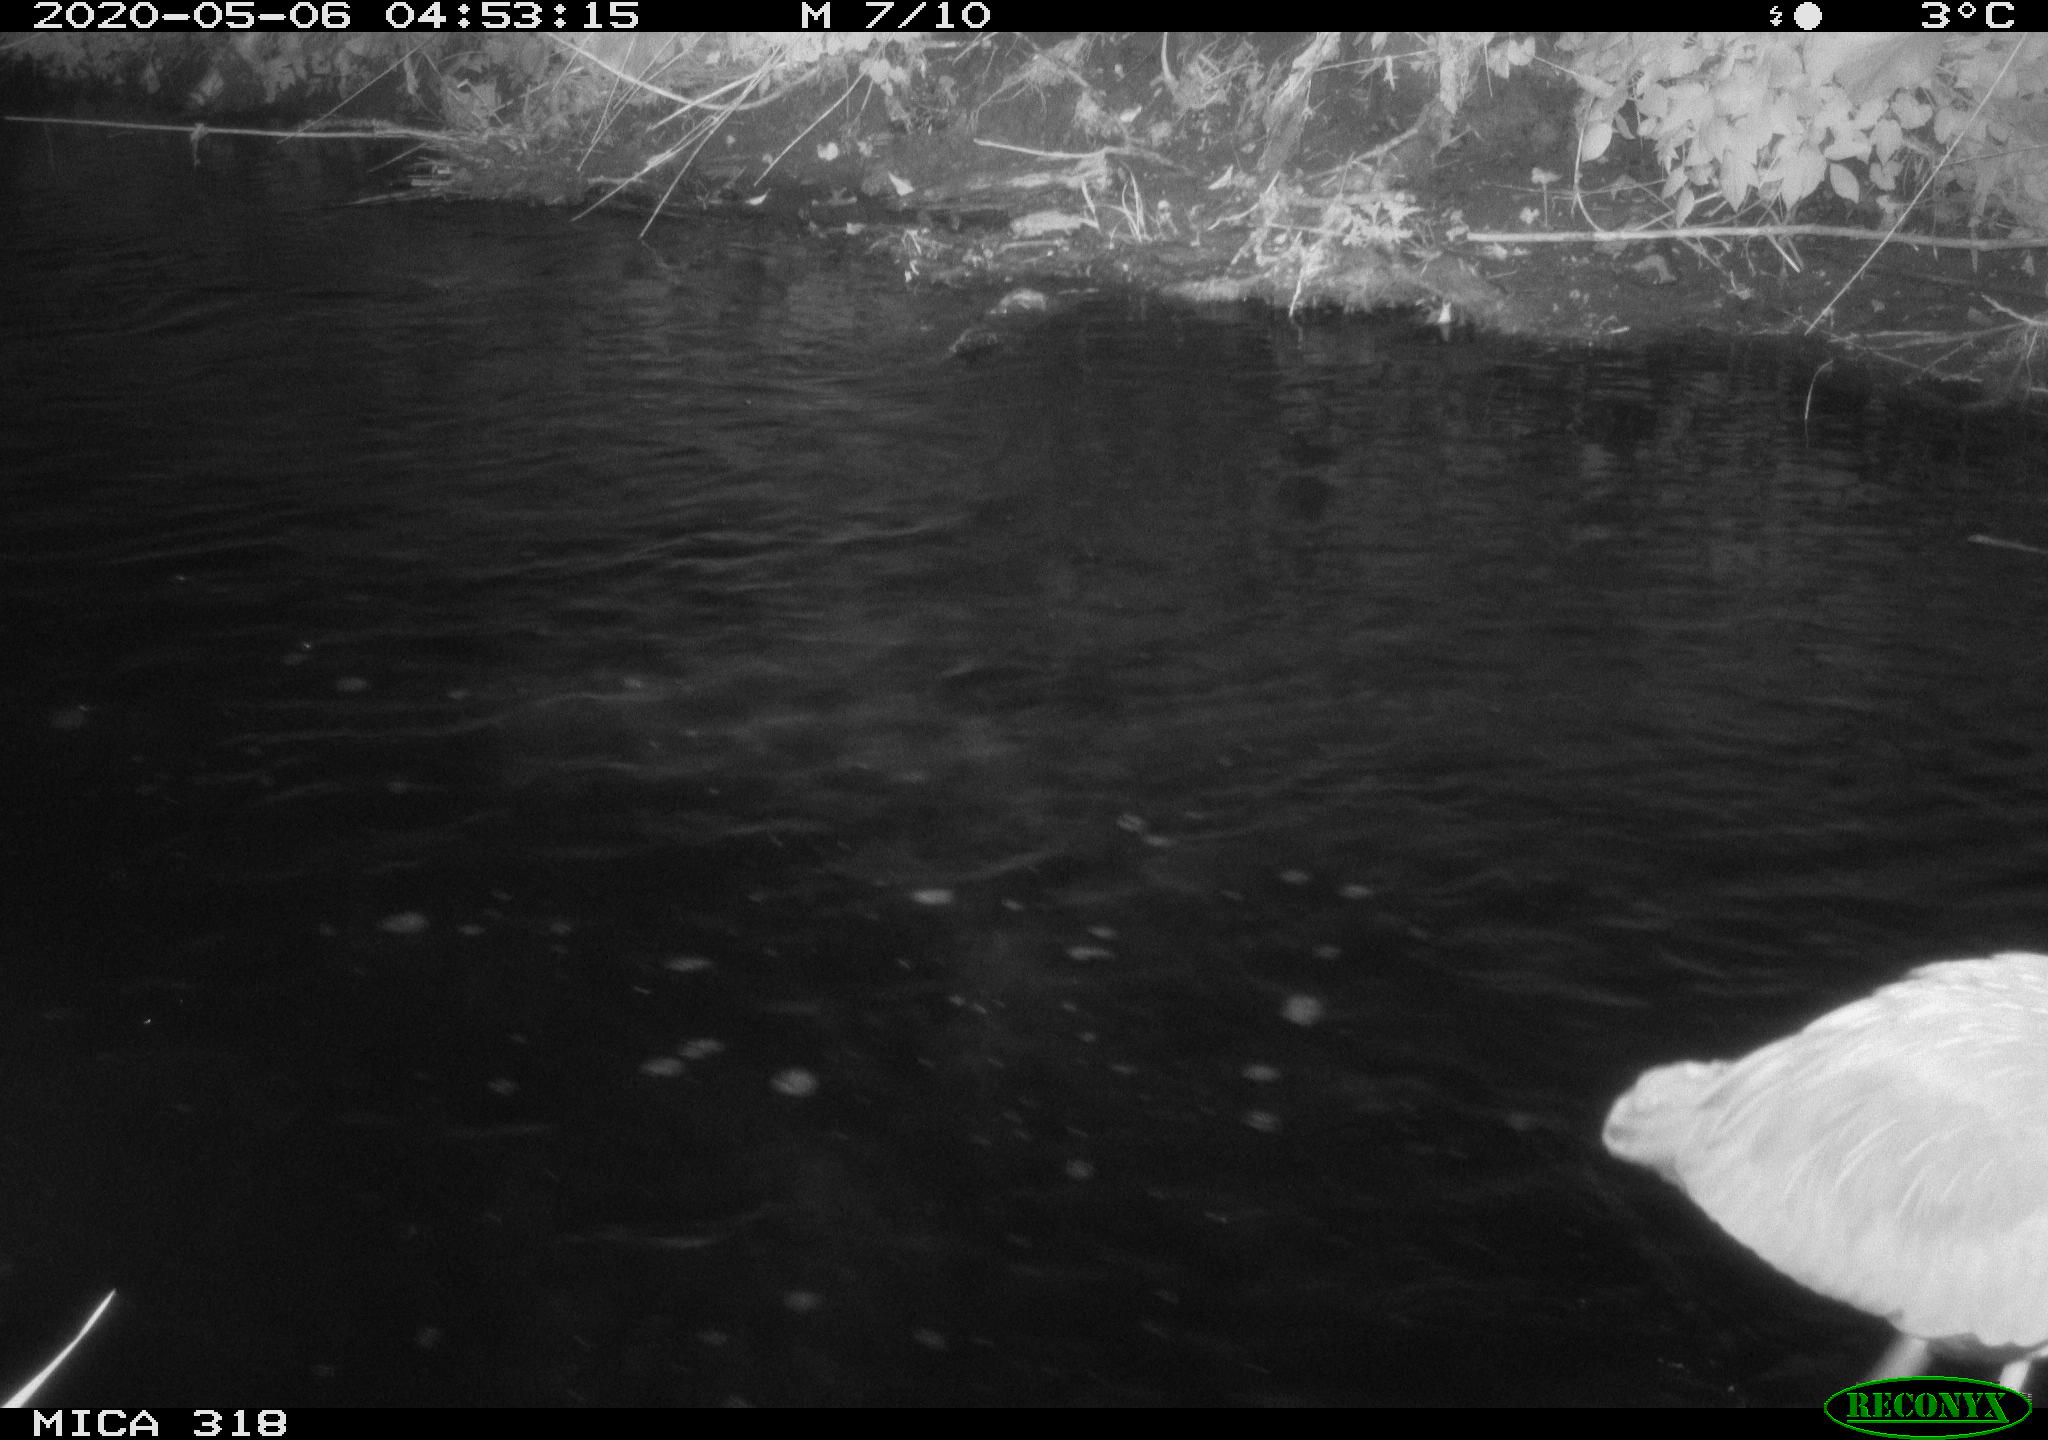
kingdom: Animalia
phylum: Chordata
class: Aves
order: Pelecaniformes
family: Ardeidae
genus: Ardea
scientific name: Ardea cinerea
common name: Grey heron
